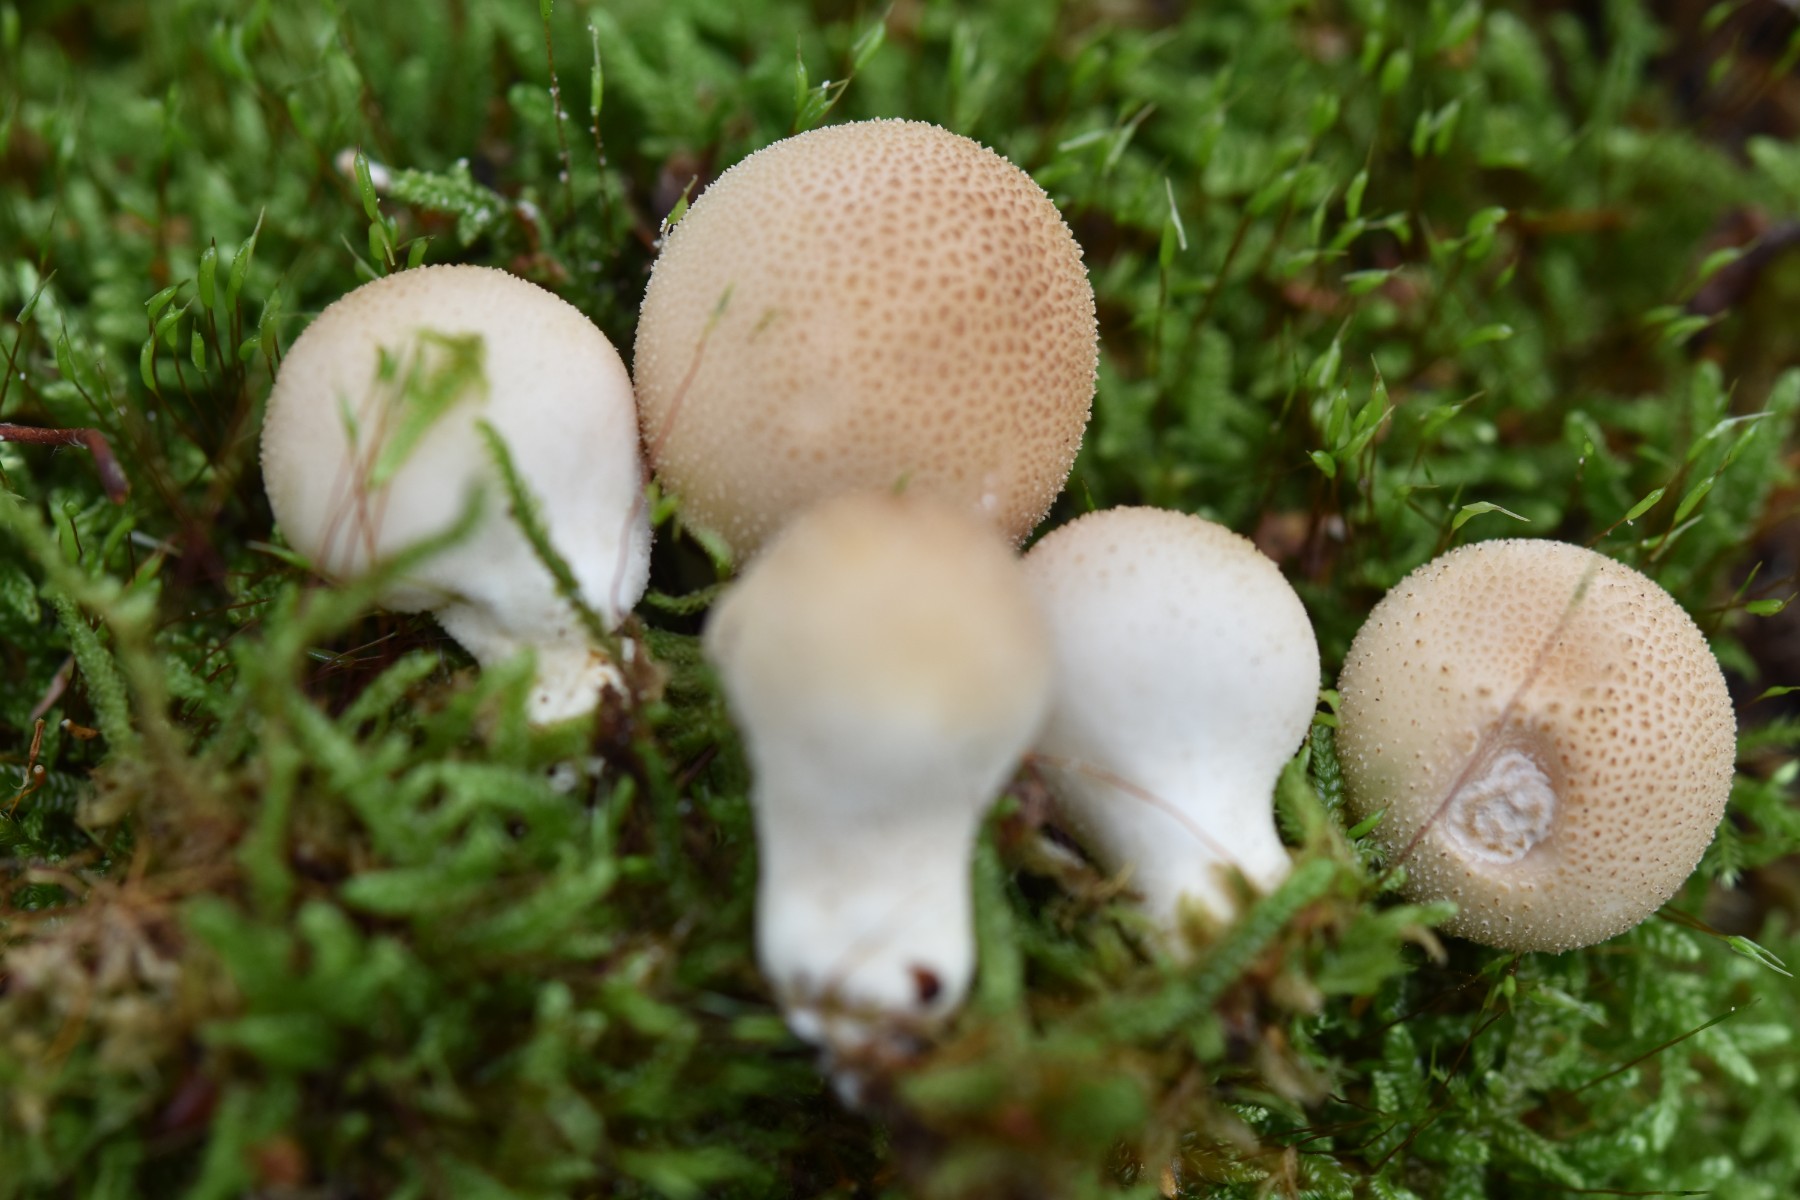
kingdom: Fungi
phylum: Basidiomycota
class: Agaricomycetes
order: Agaricales
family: Lycoperdaceae
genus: Apioperdon
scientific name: Apioperdon pyriforme
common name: pære-støvbold
